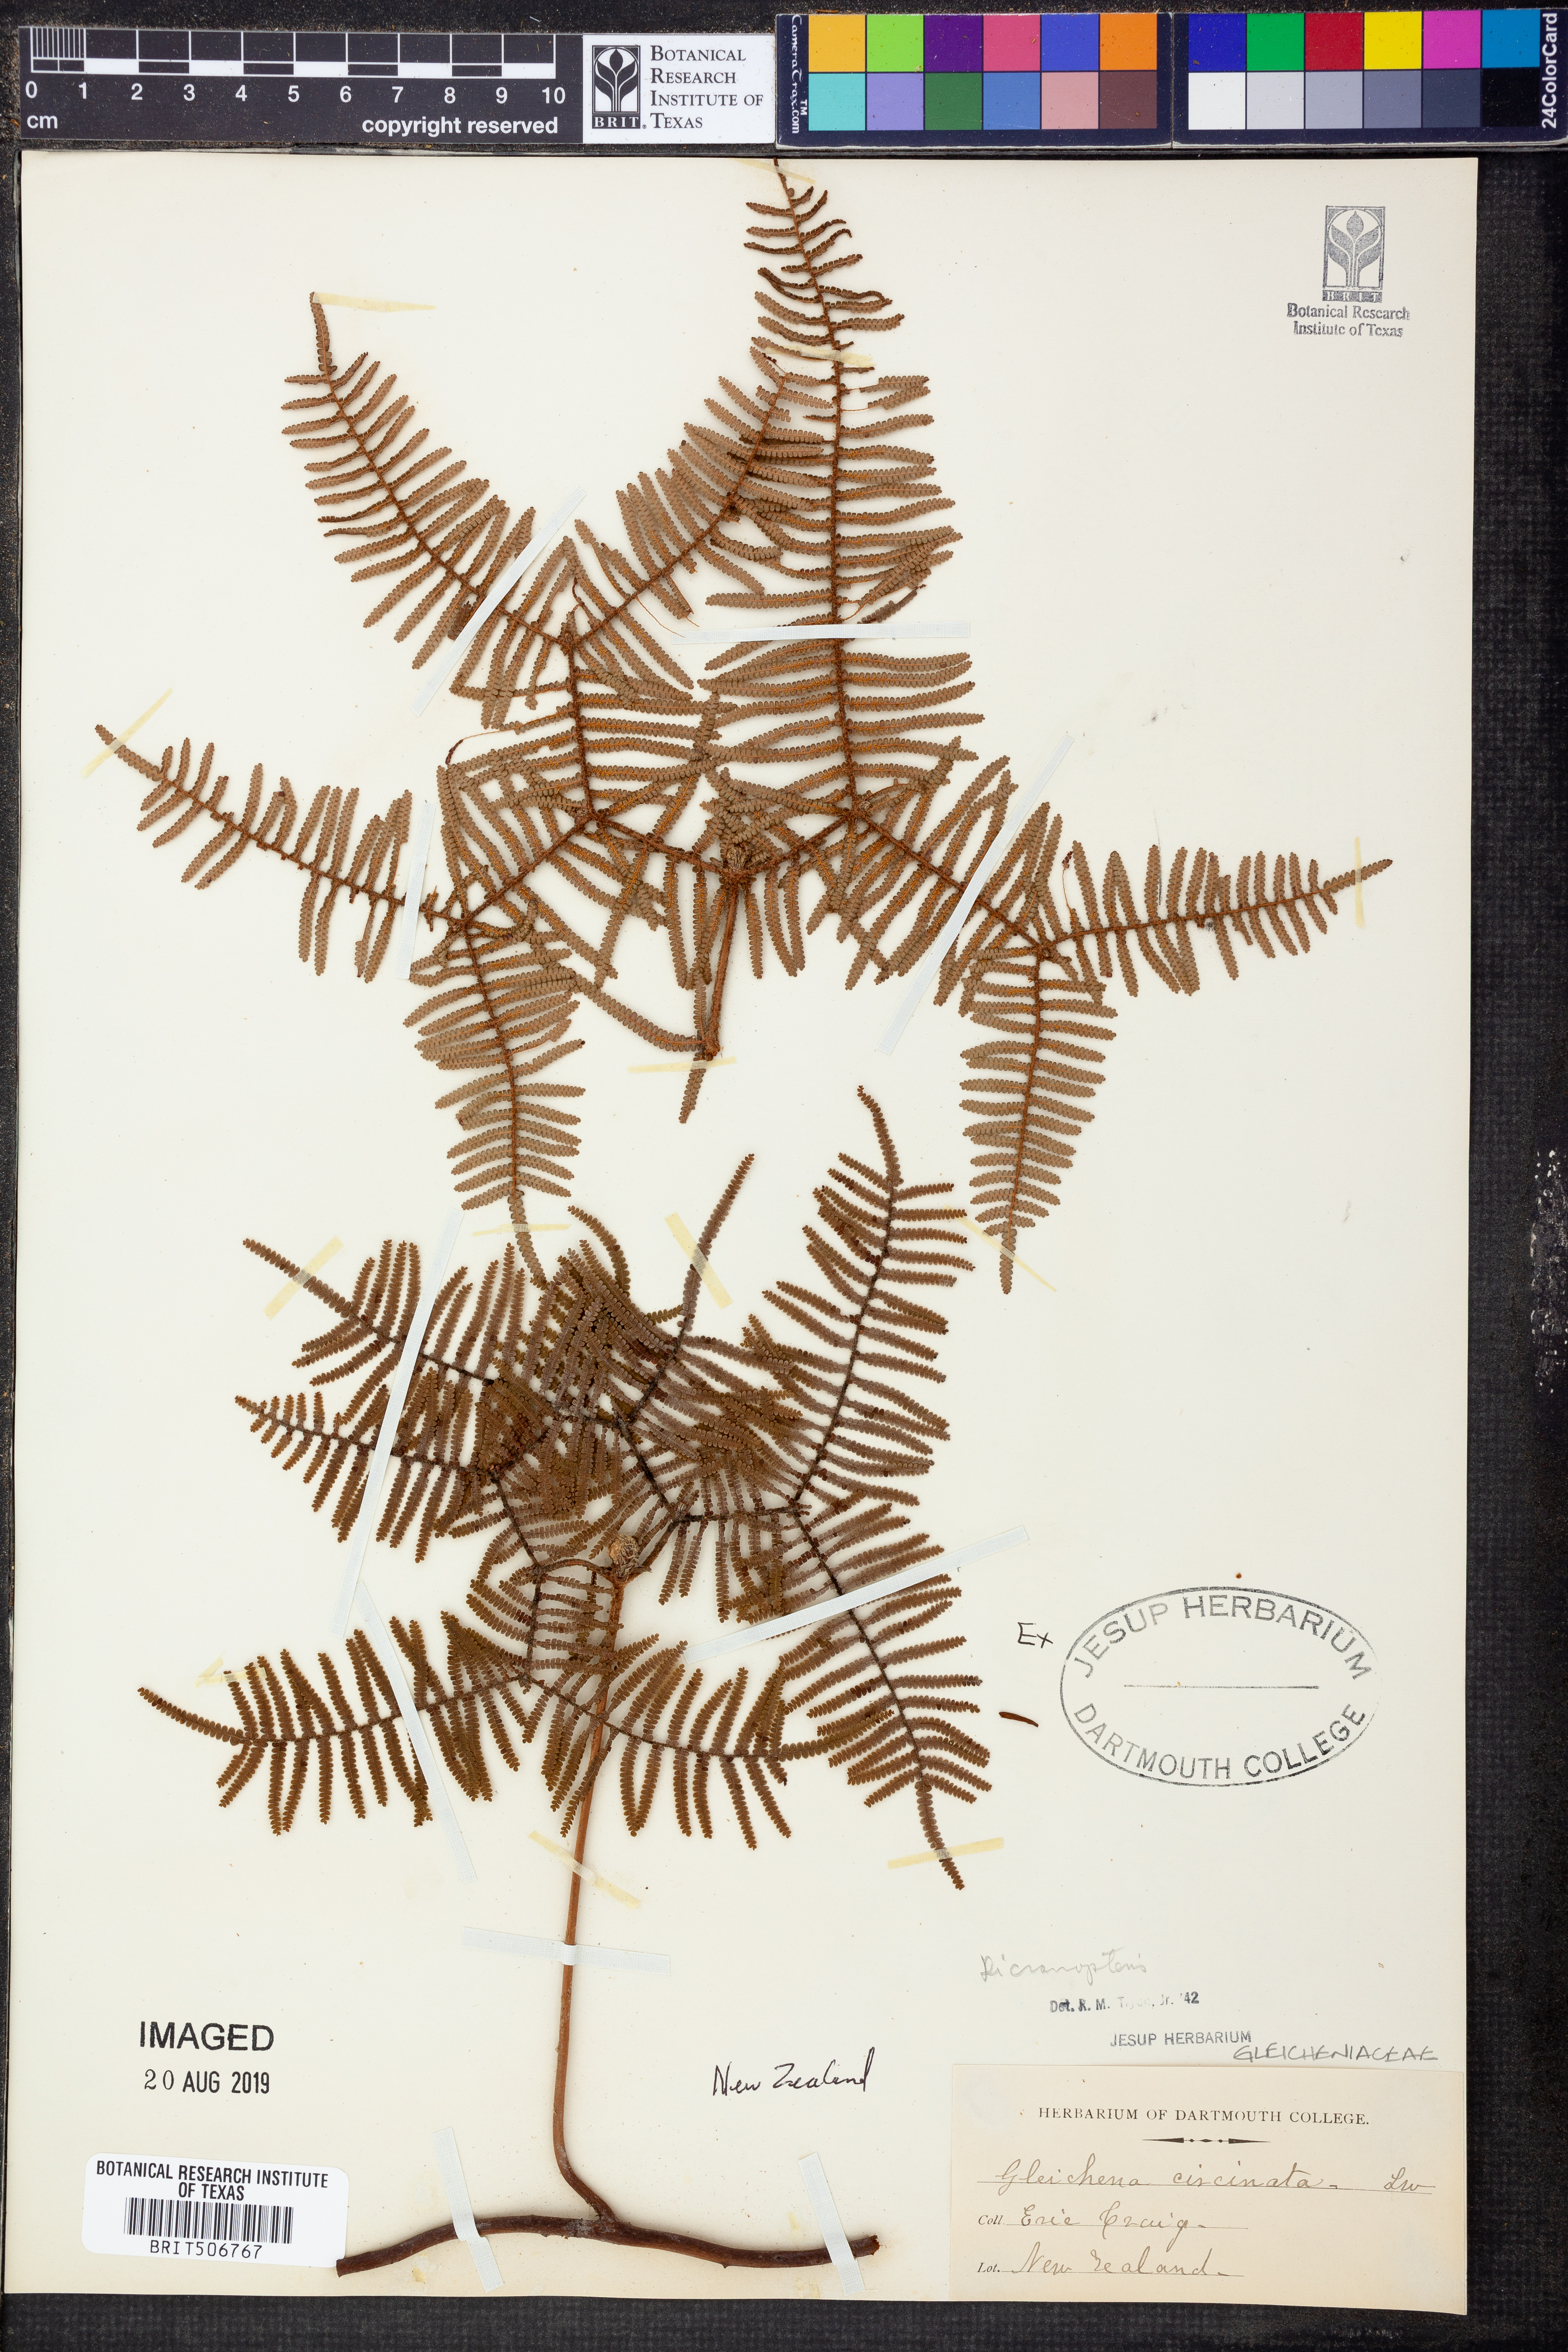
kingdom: Plantae
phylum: Tracheophyta
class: Polypodiopsida
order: Gleicheniales
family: Gleicheniaceae
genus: Dicranopteris
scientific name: Dicranopteris
